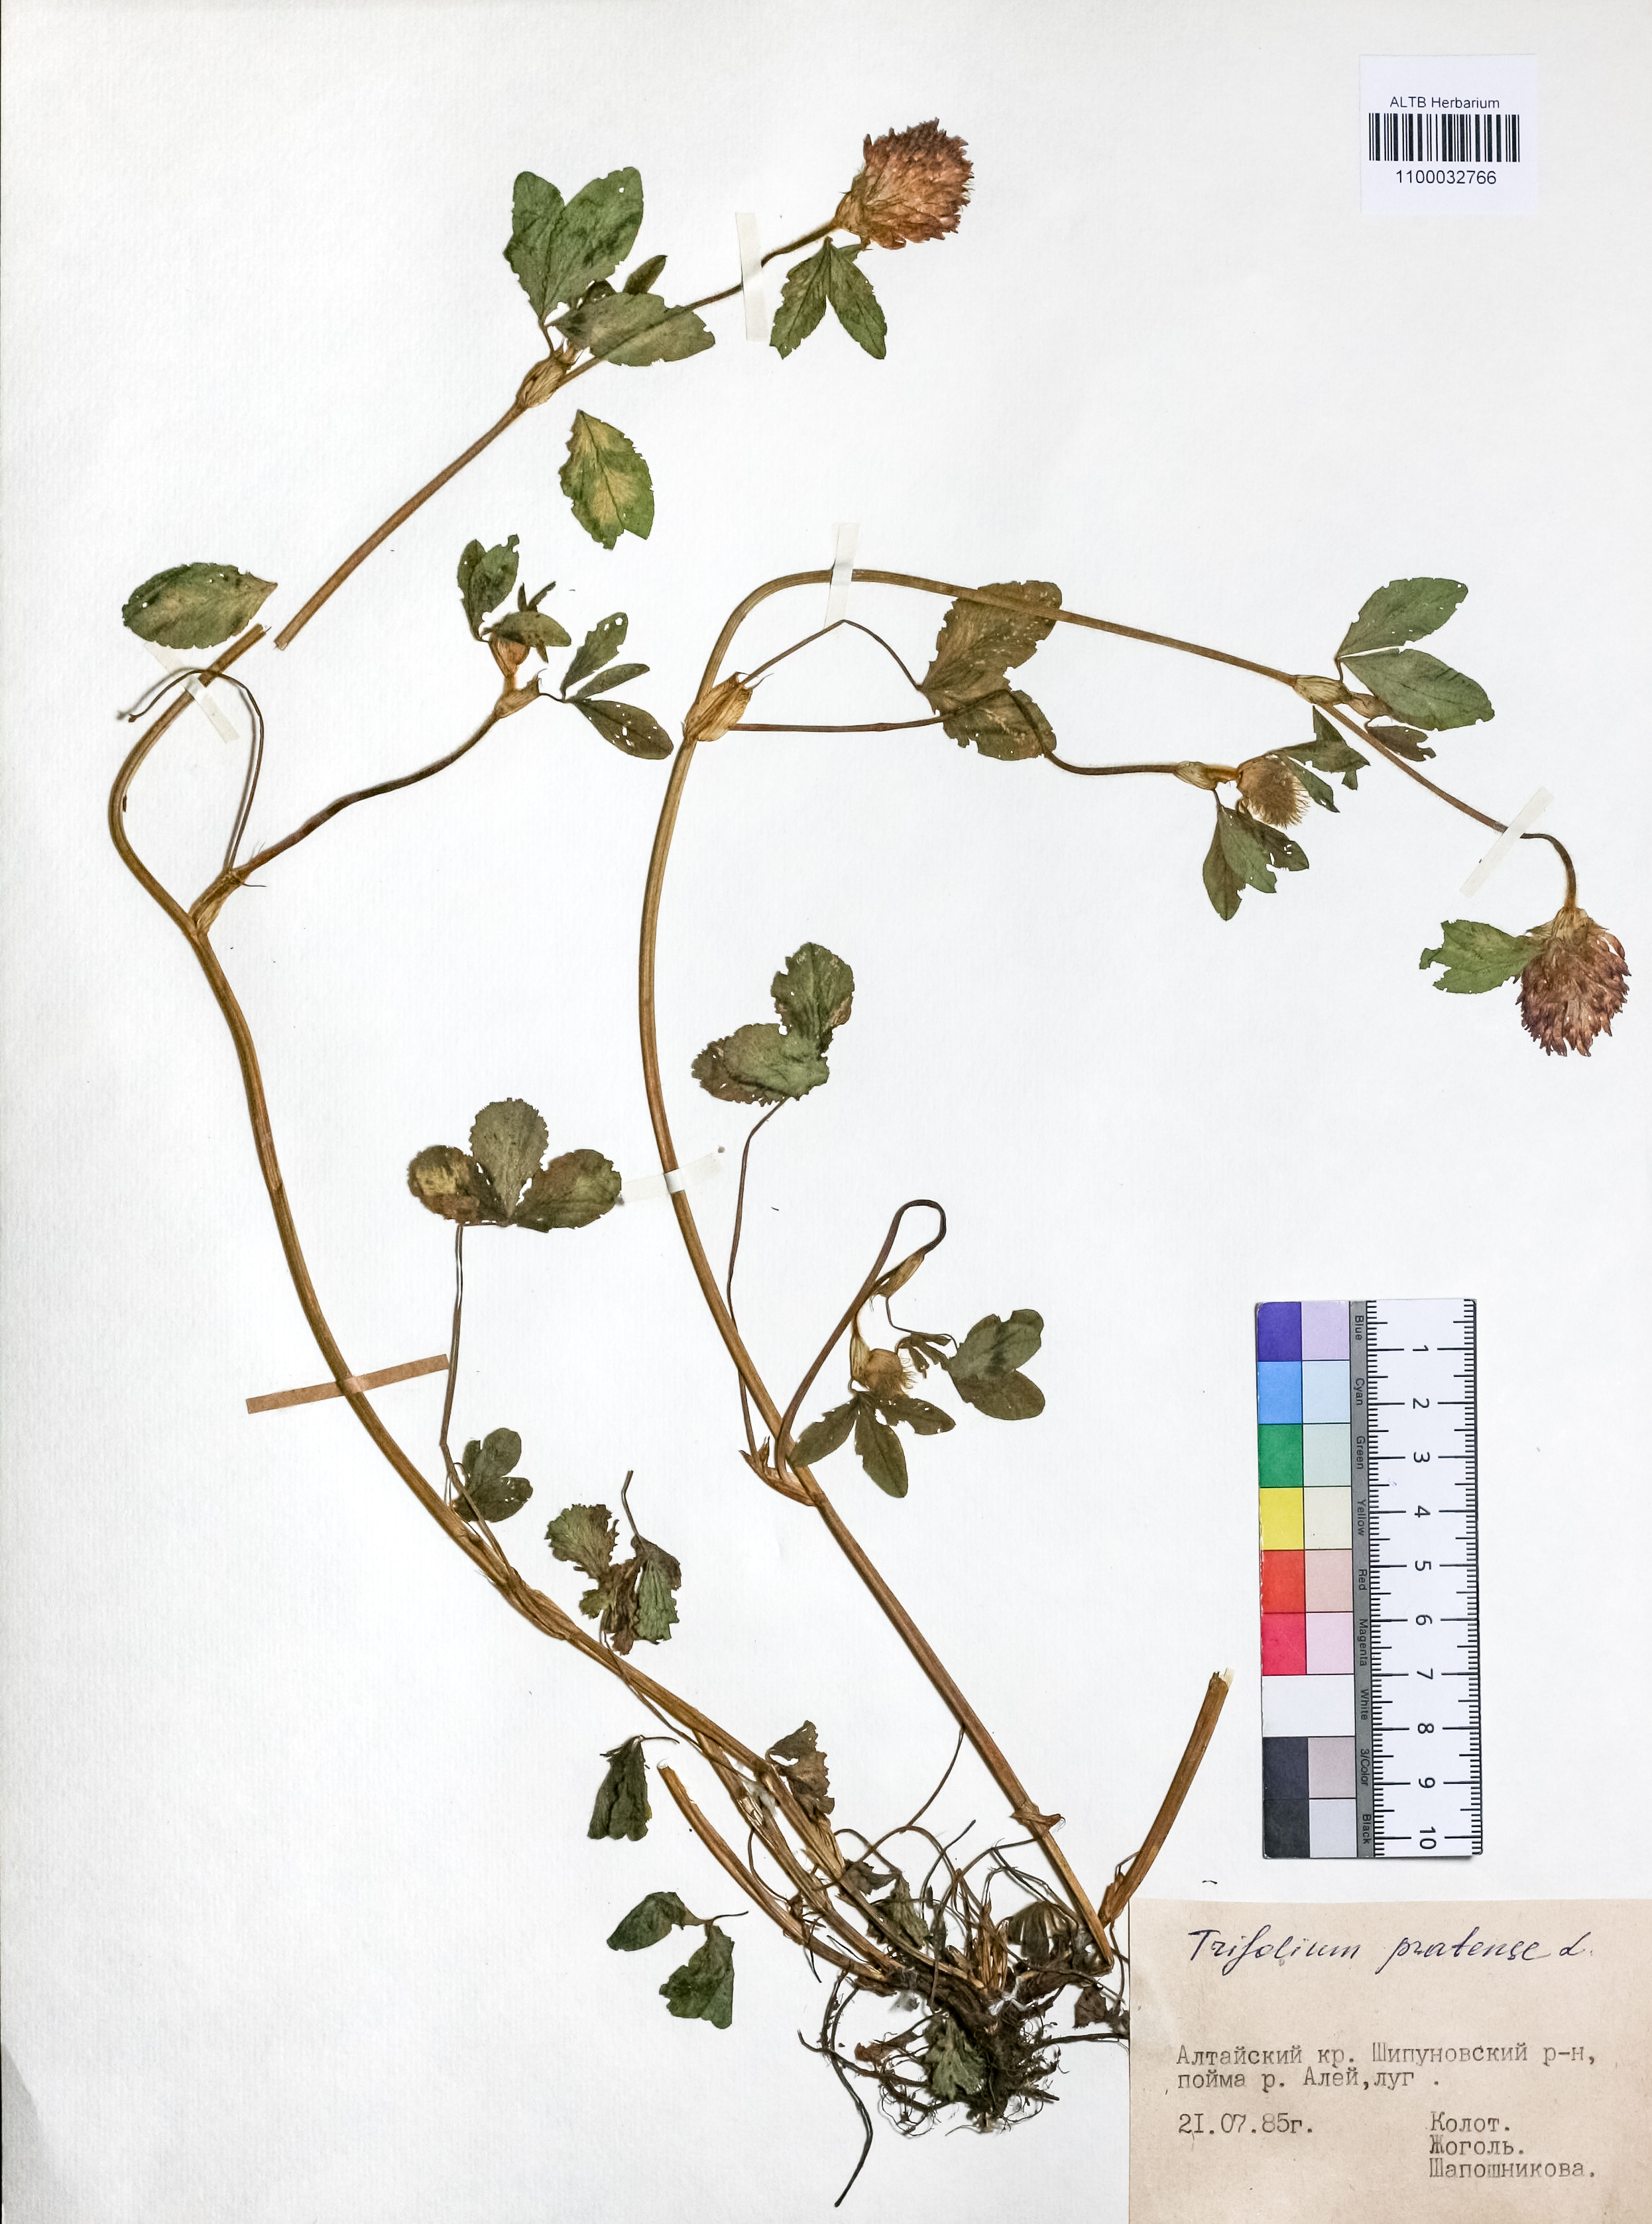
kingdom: Plantae
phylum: Tracheophyta
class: Magnoliopsida
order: Fabales
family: Fabaceae
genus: Trifolium
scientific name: Trifolium pratense
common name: Red clover
